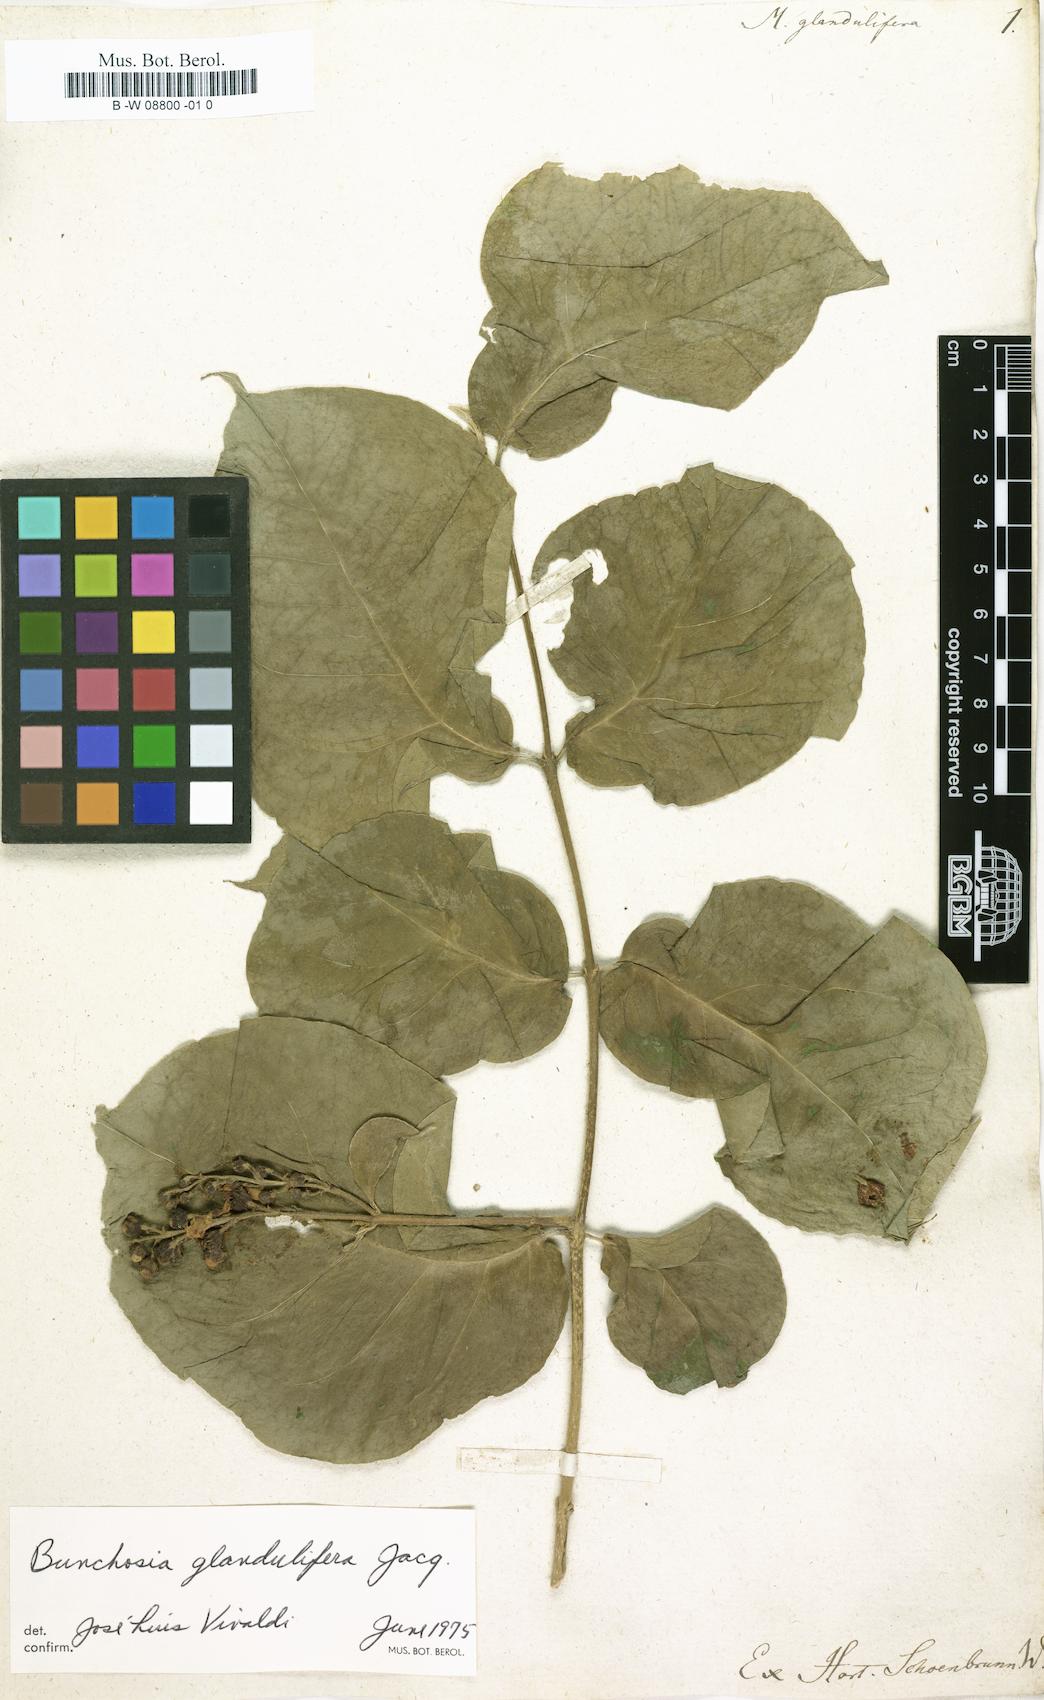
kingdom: Plantae
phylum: Tracheophyta
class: Magnoliopsida
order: Malpighiales
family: Malpighiaceae
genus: Bunchosia
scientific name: Bunchosia glandulifera
